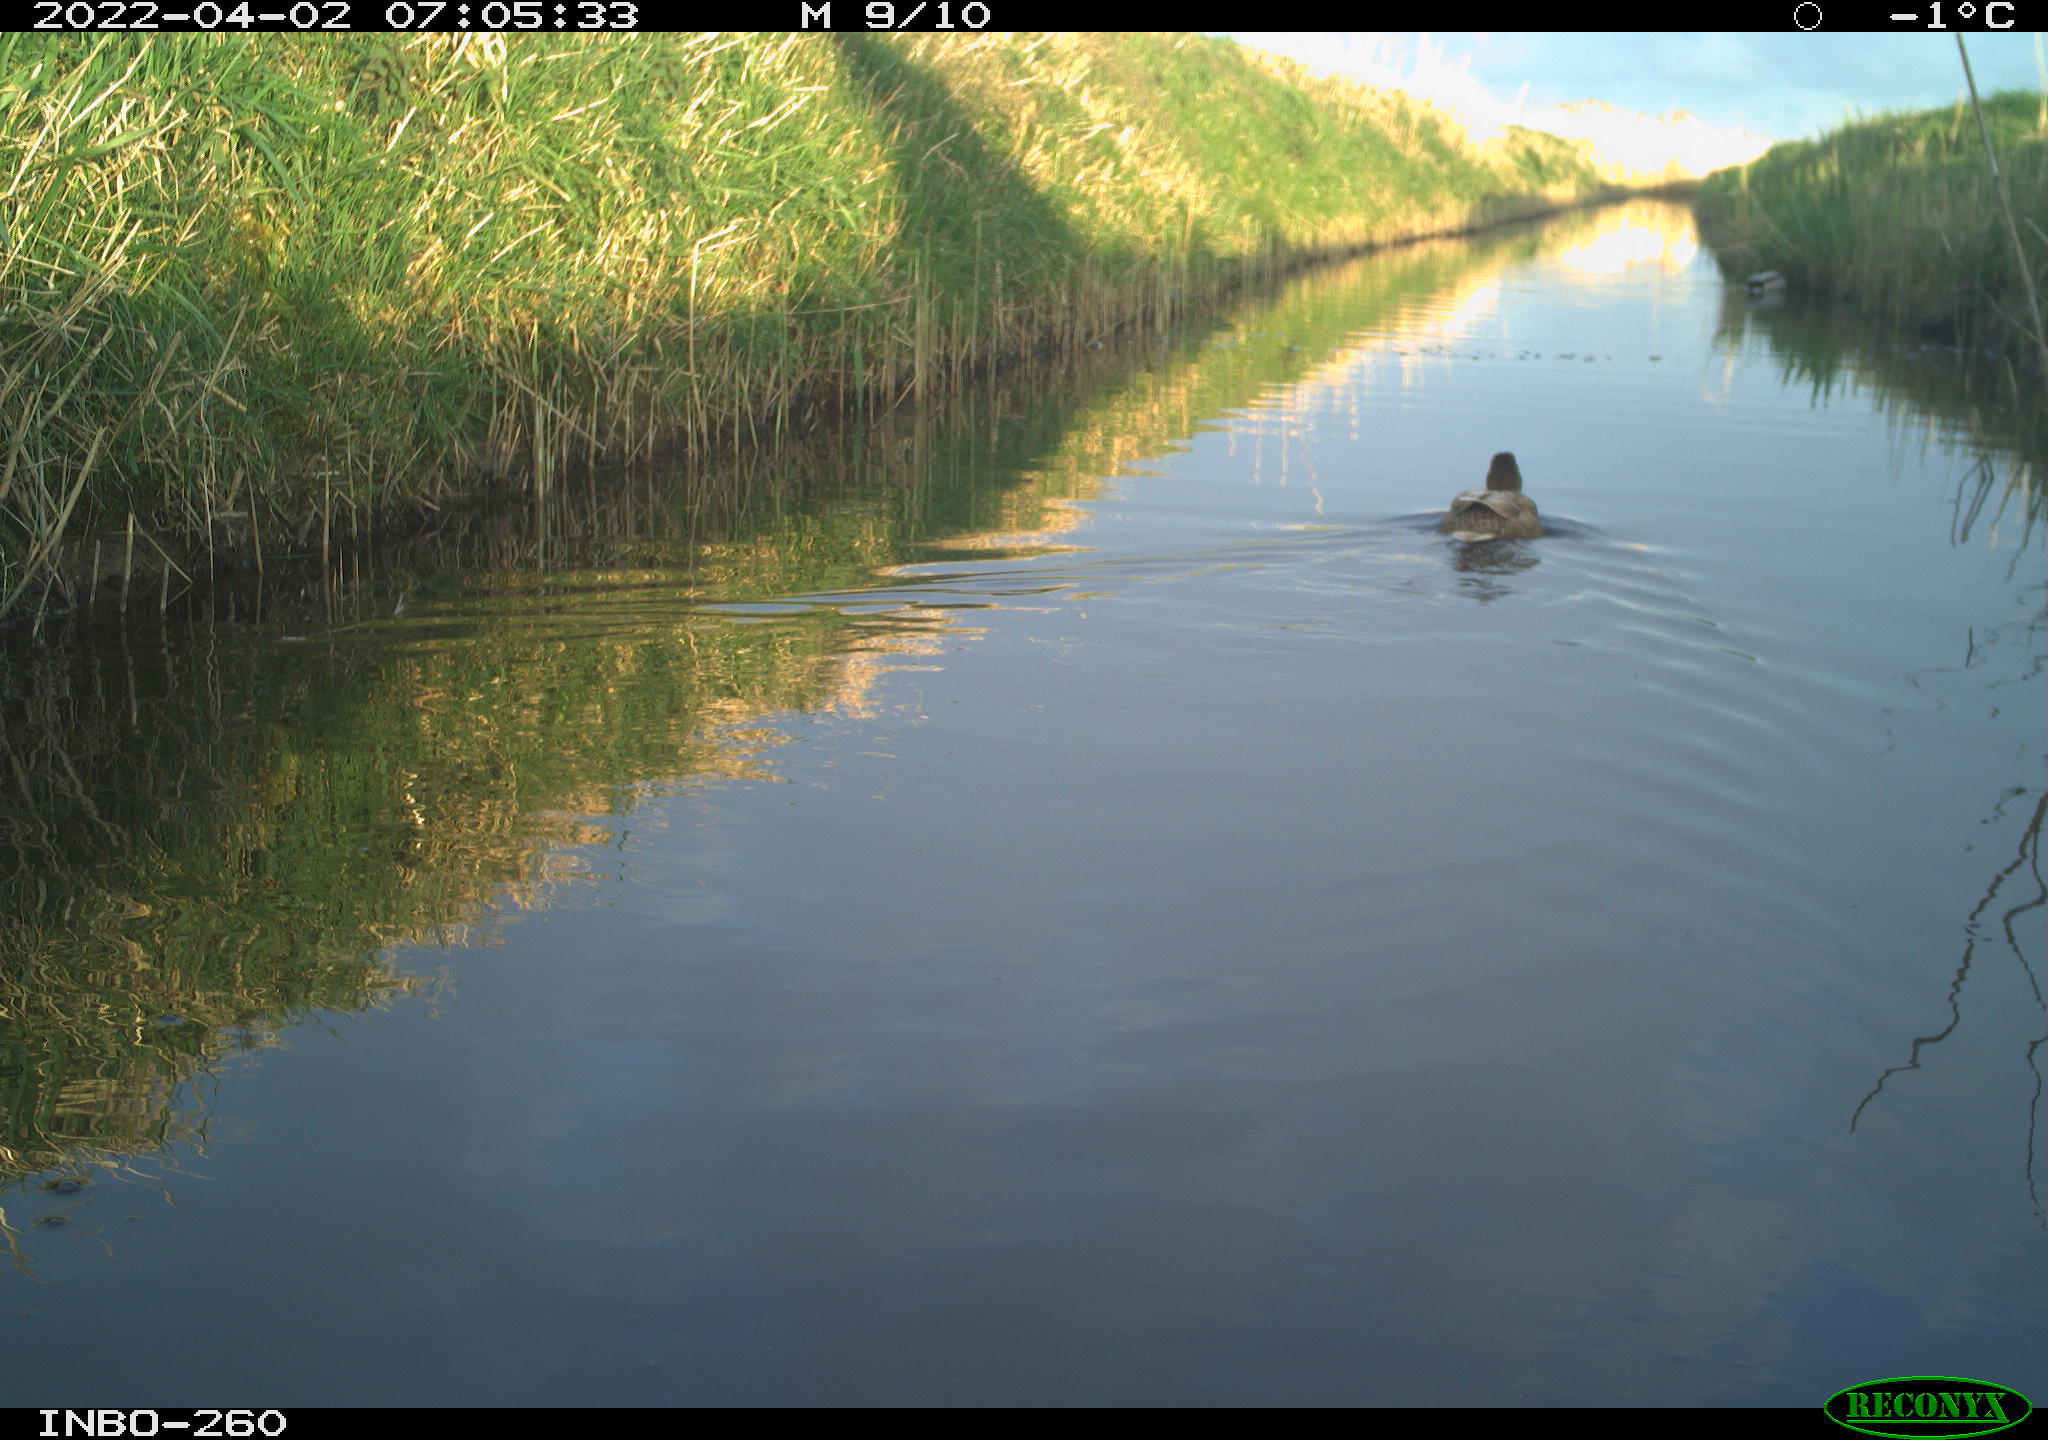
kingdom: Animalia
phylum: Chordata
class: Aves
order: Anseriformes
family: Anatidae
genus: Anas
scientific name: Anas
